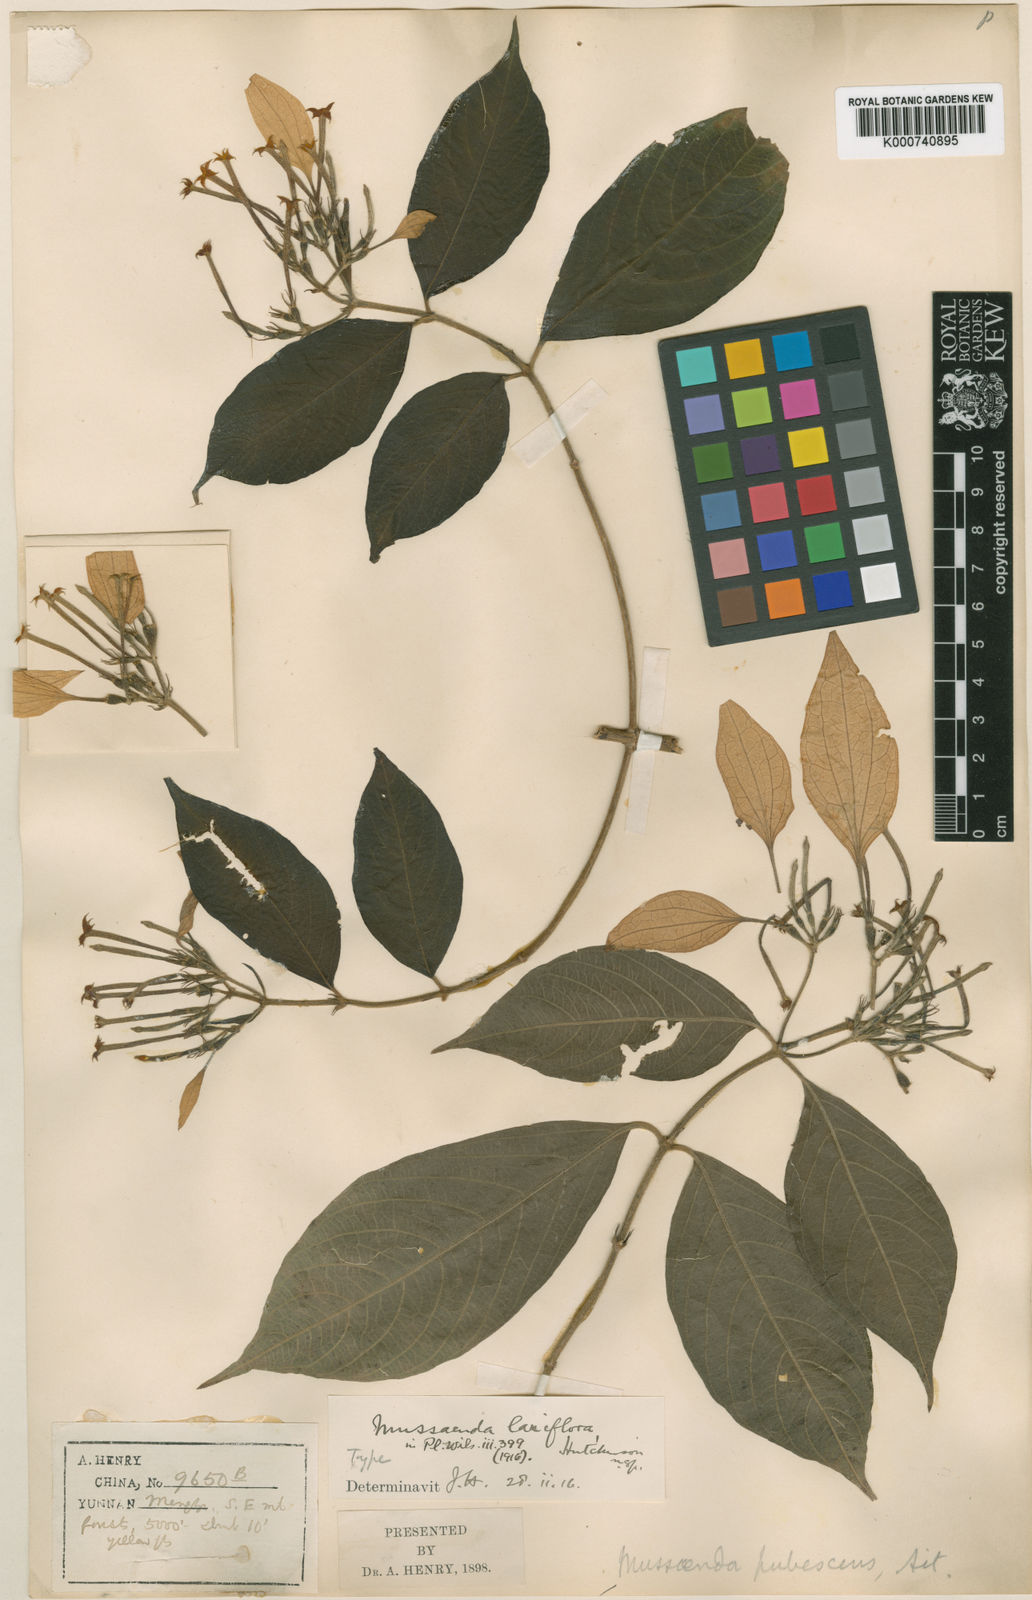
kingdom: Plantae
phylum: Tracheophyta
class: Magnoliopsida
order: Gentianales
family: Rubiaceae
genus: Mussaenda
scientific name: Mussaenda laxiflora
